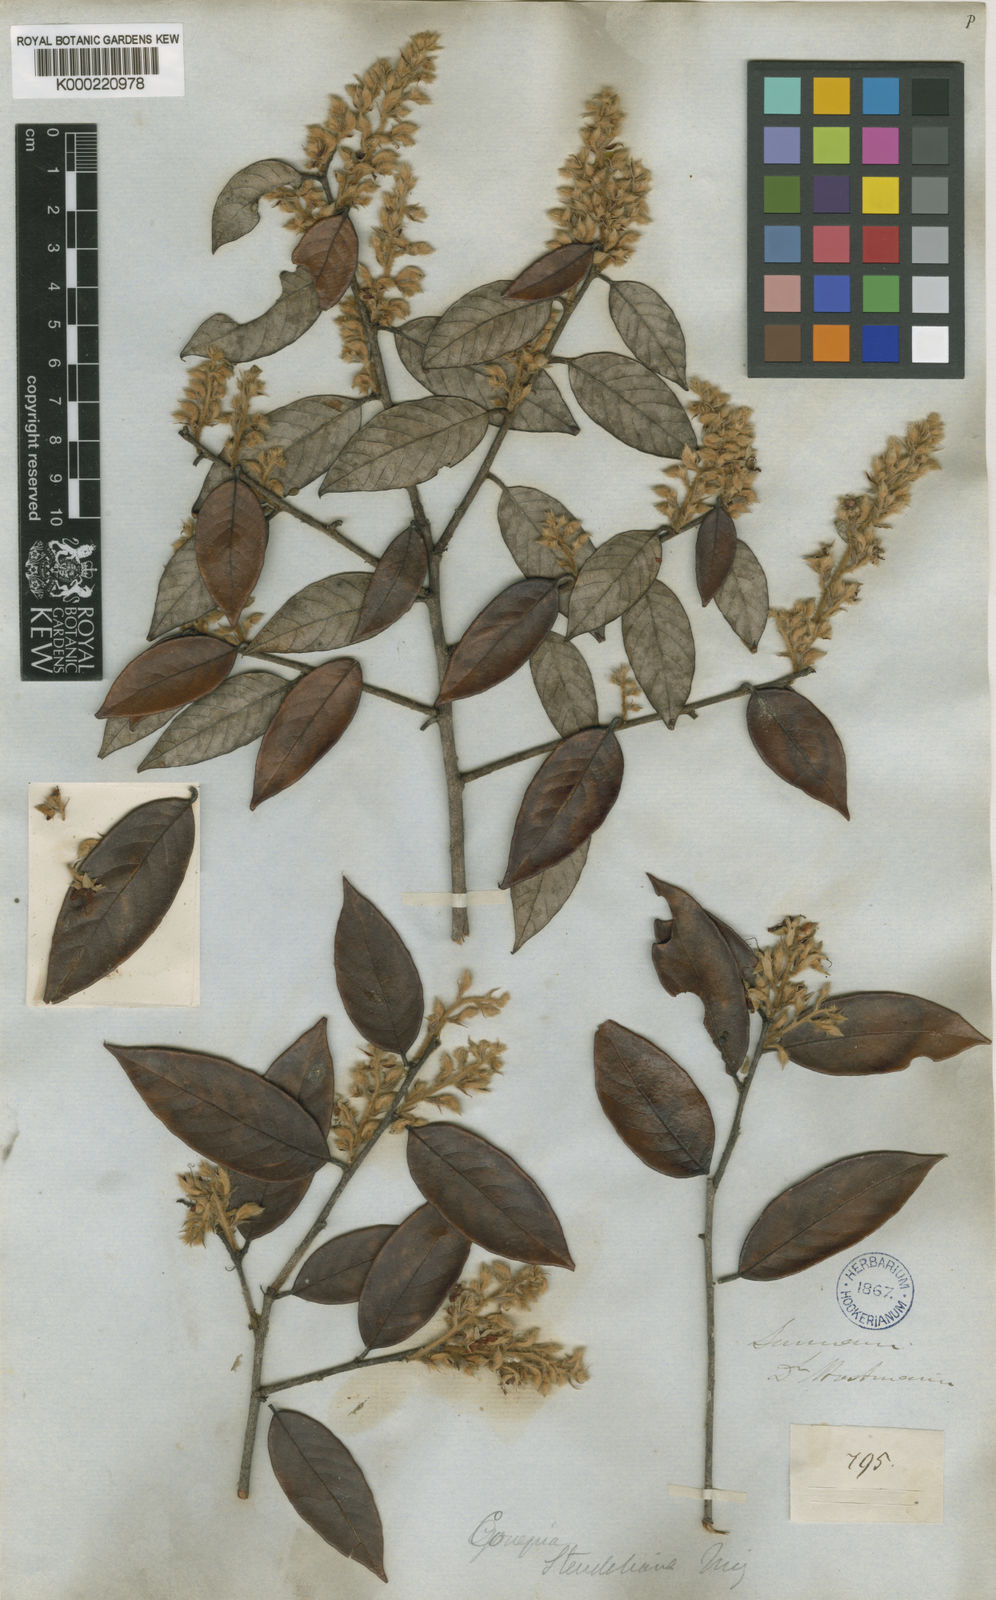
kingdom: Plantae
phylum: Tracheophyta
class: Magnoliopsida
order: Malpighiales
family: Chrysobalanaceae
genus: Couepia
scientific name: Couepia
